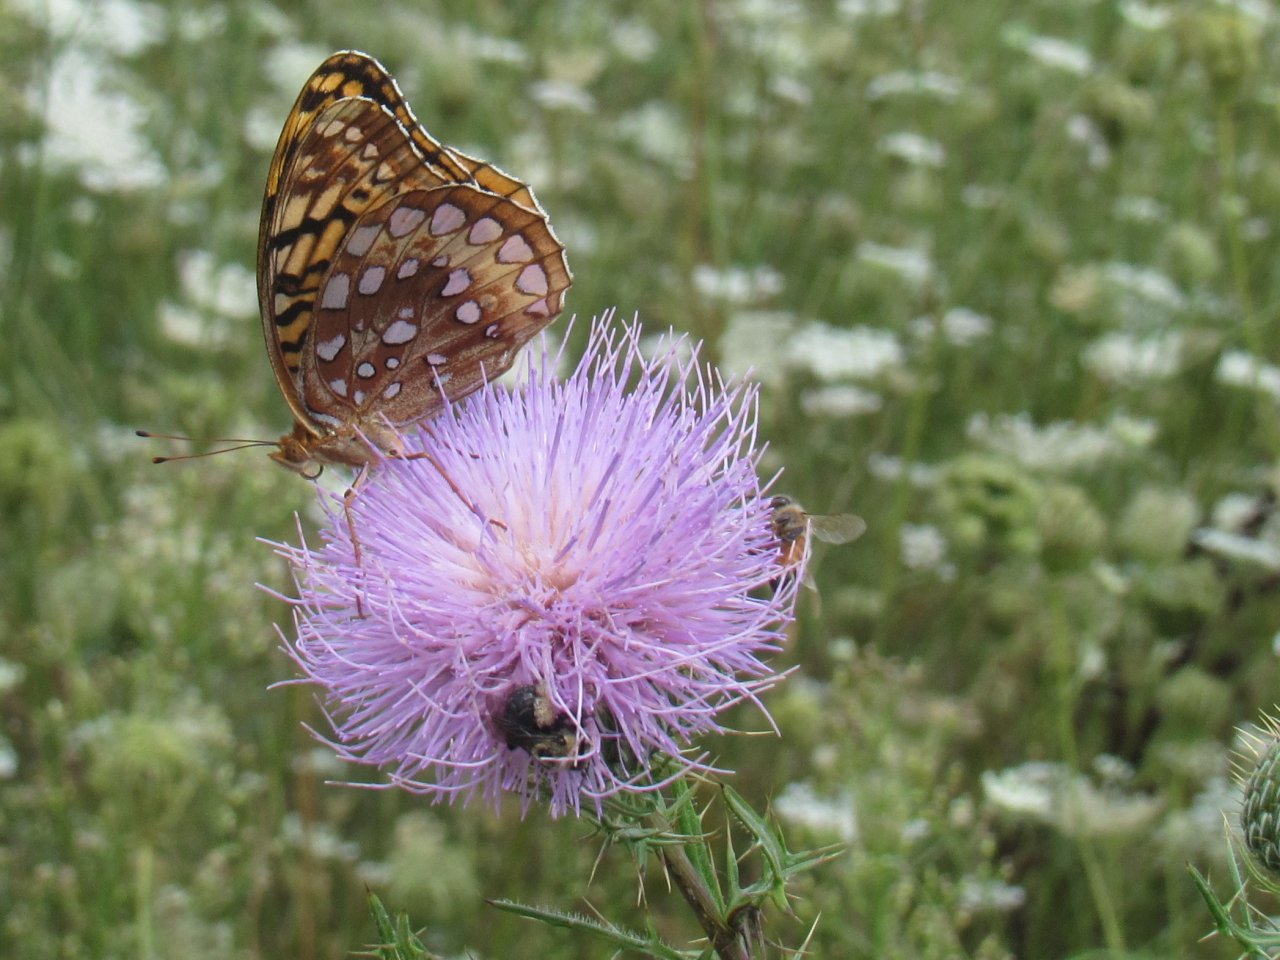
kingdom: Animalia
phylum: Arthropoda
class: Insecta
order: Lepidoptera
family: Nymphalidae
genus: Speyeria
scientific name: Speyeria cybele
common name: Great Spangled Fritillary
